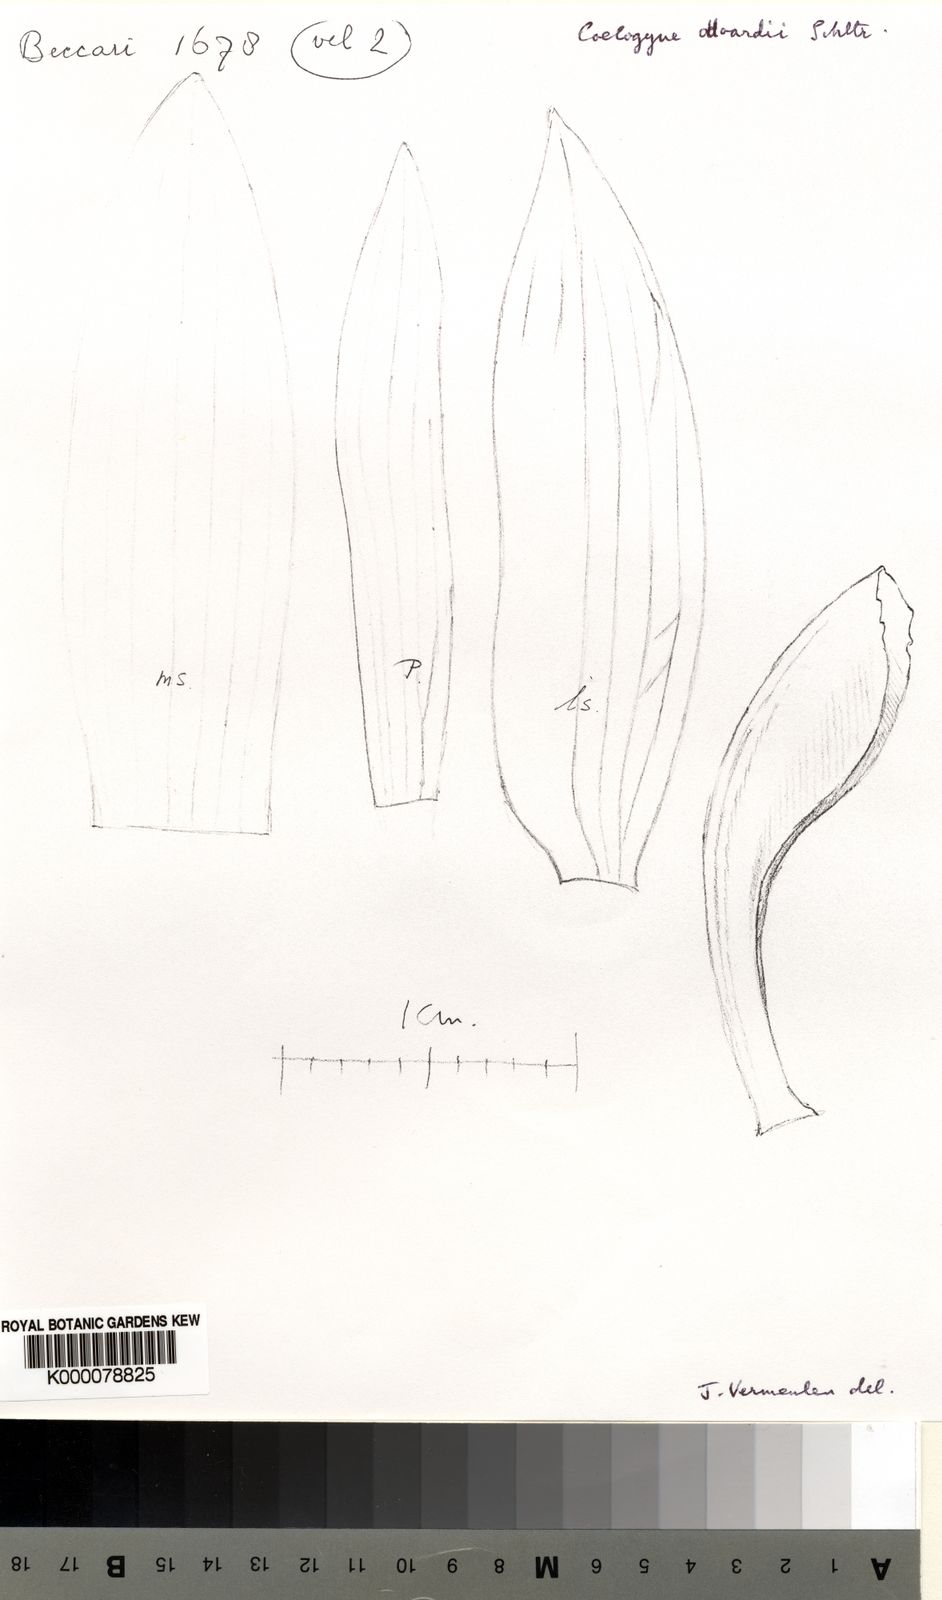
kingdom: Plantae
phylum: Tracheophyta
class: Liliopsida
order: Asparagales
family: Orchidaceae
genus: Coelogyne
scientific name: Coelogyne odoardi
